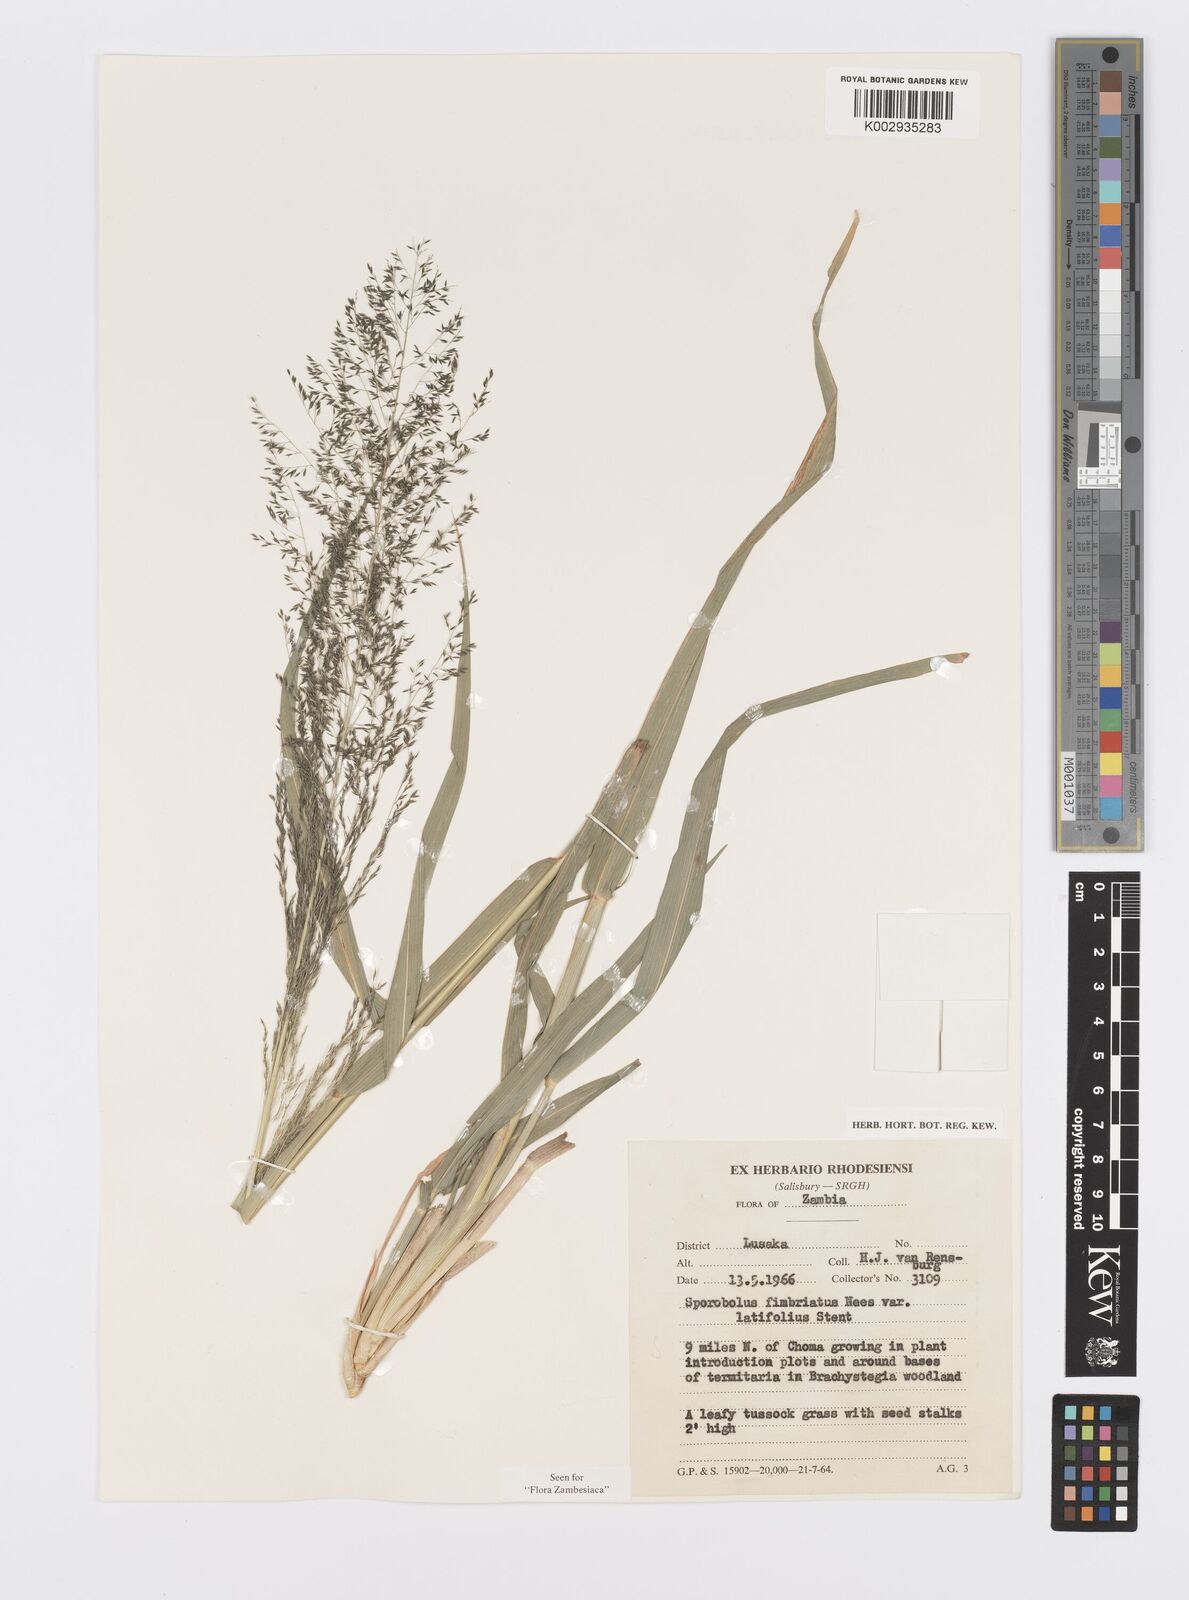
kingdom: Plantae
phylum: Tracheophyta
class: Liliopsida
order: Poales
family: Poaceae
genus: Sporobolus
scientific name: Sporobolus fimbriatus
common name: Fringed dropseed
